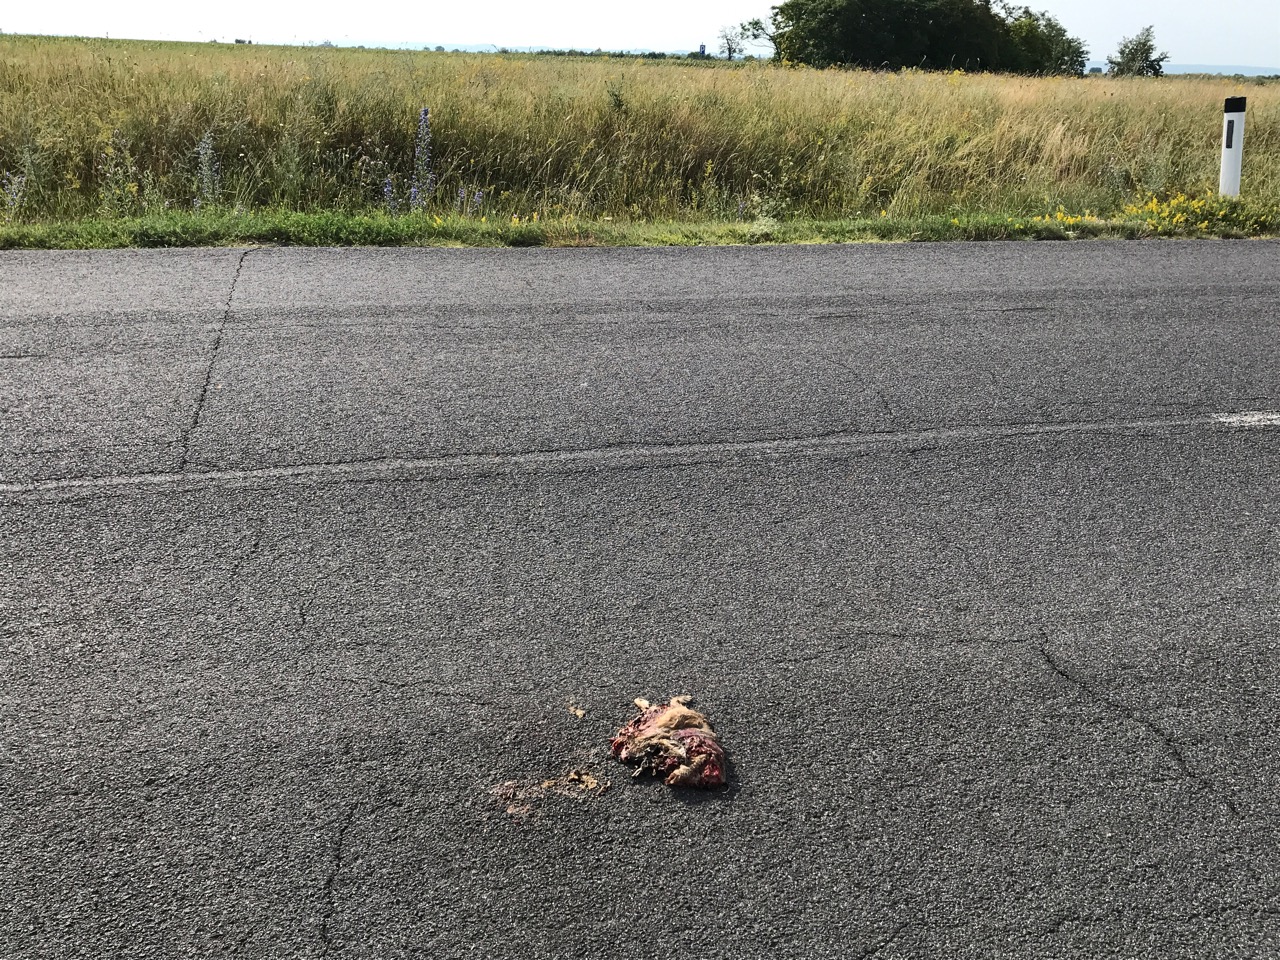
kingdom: Animalia
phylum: Chordata
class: Mammalia
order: Lagomorpha
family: Leporidae
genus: Lepus
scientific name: Lepus europaeus
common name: European hare
